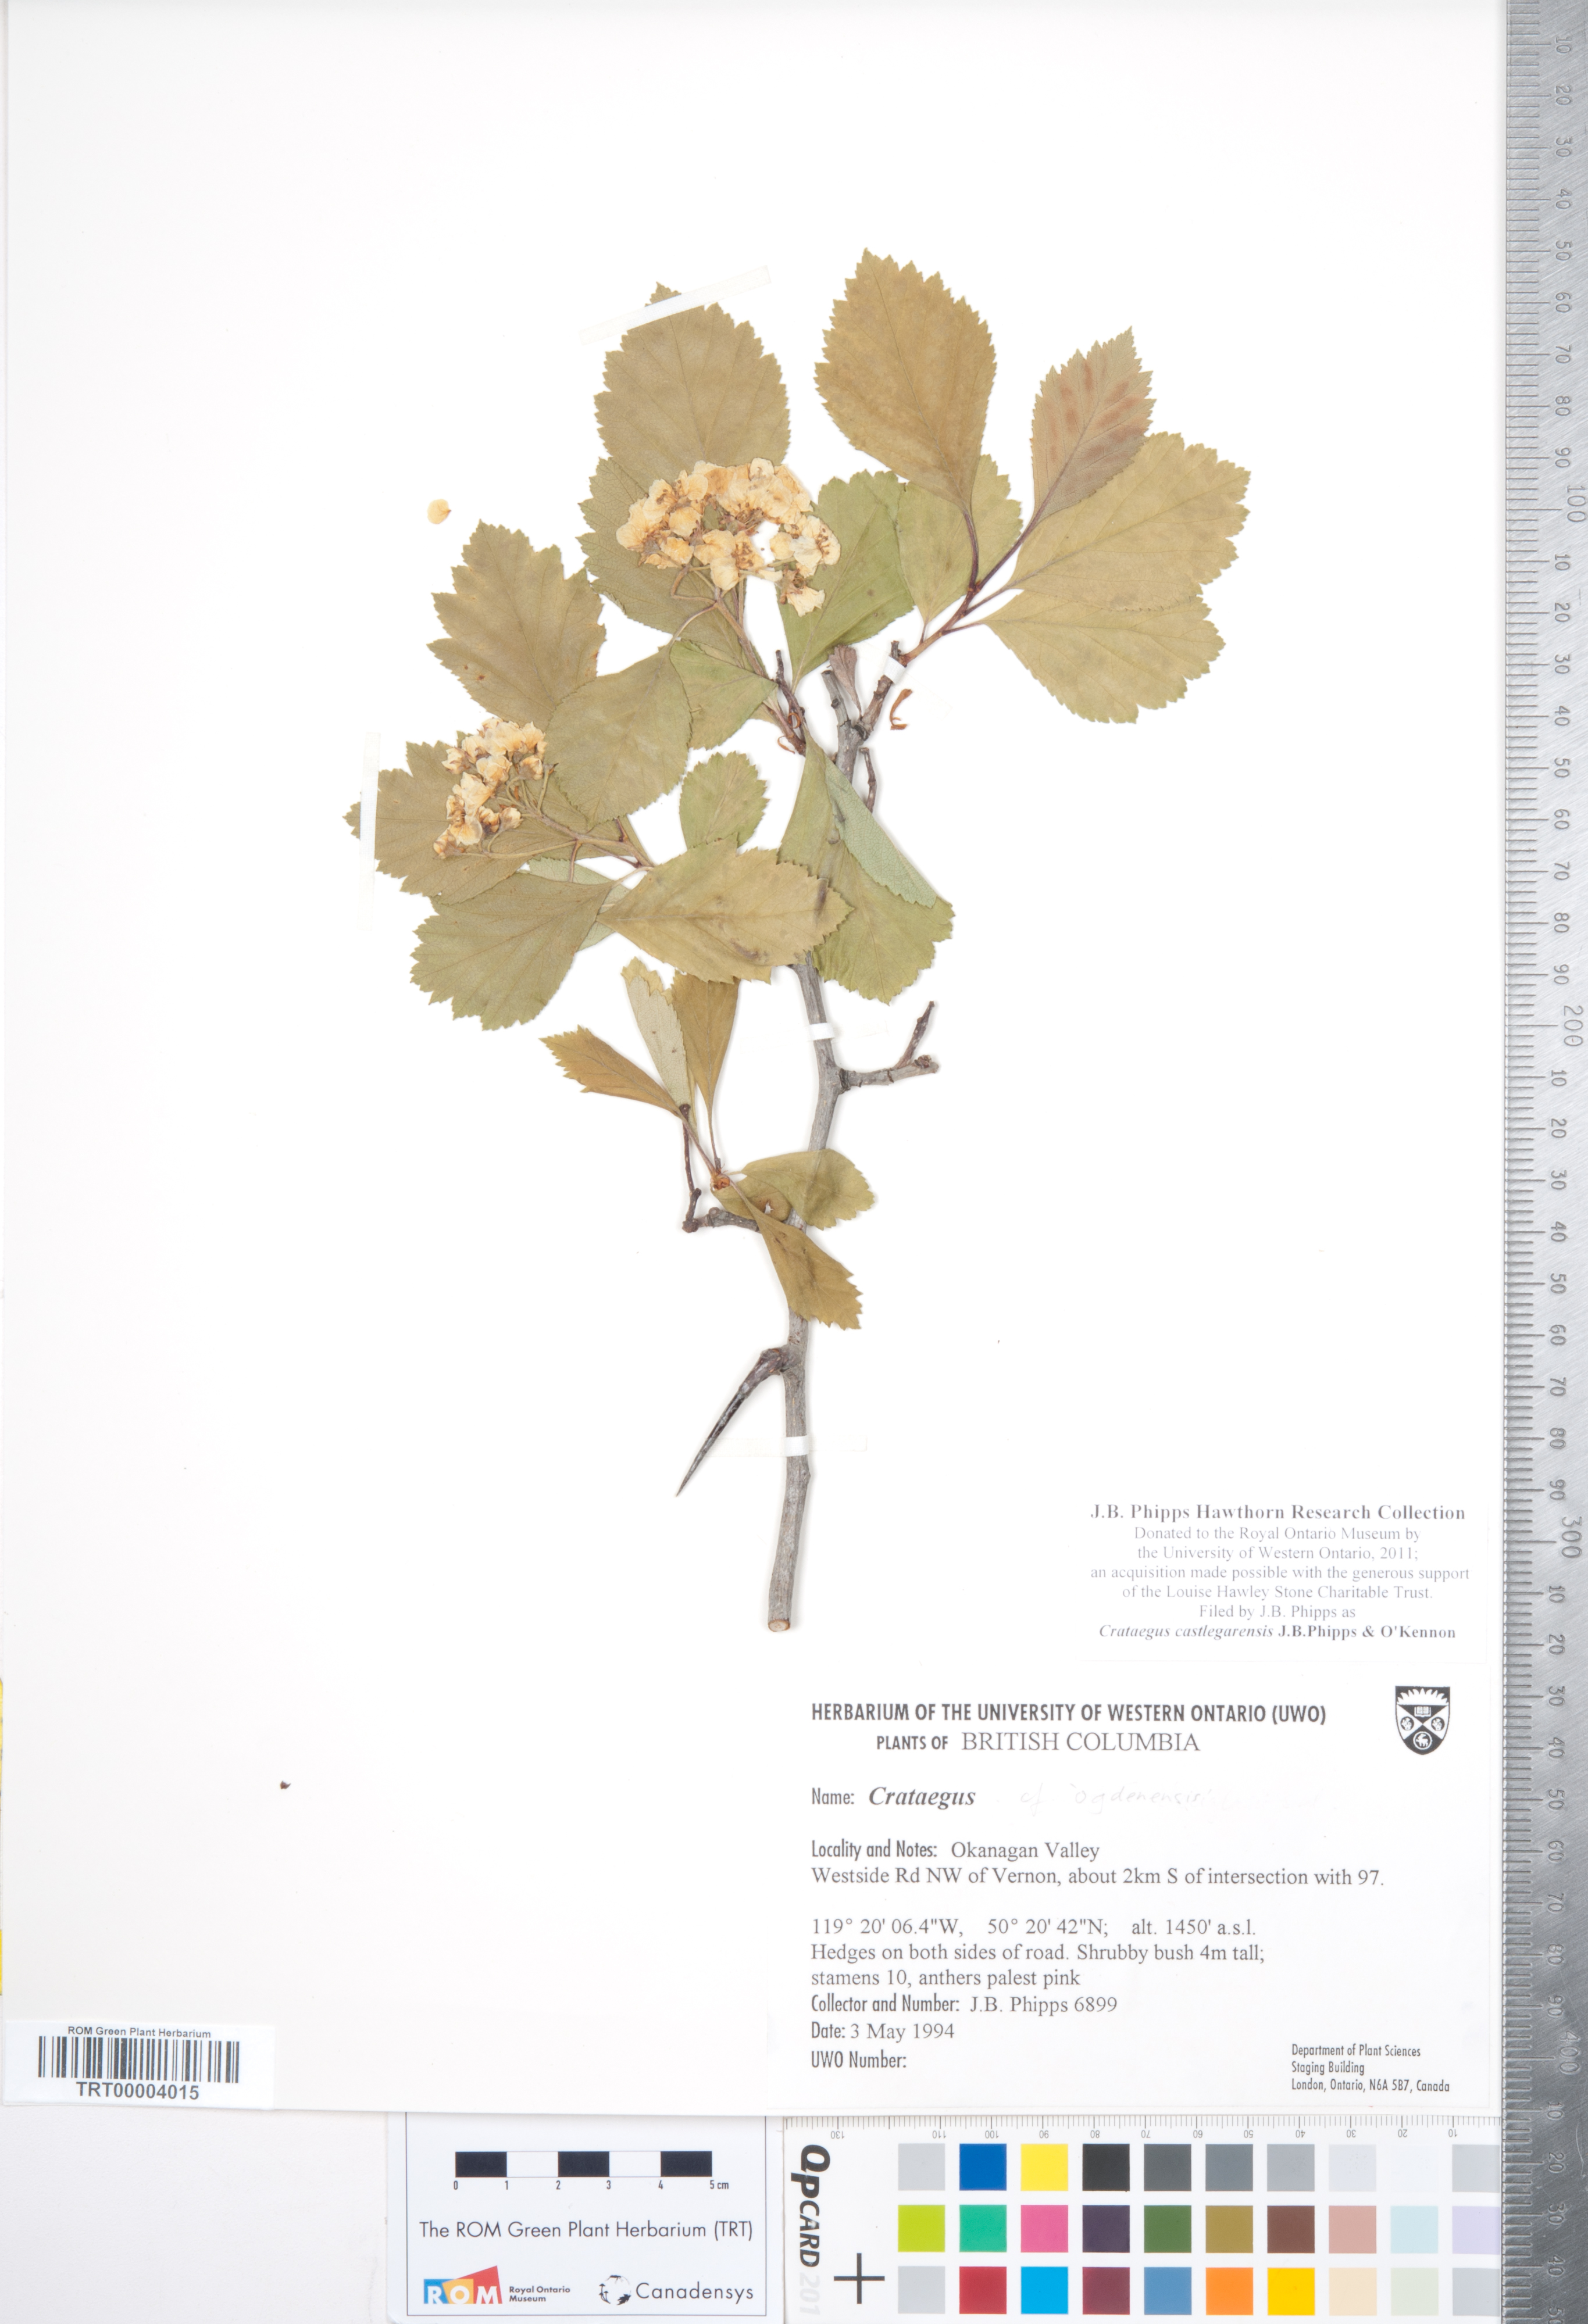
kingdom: Plantae
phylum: Tracheophyta
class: Magnoliopsida
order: Rosales
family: Rosaceae
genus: Crataegus
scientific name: Crataegus castlegarensis
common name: Castlegar hawthorn
